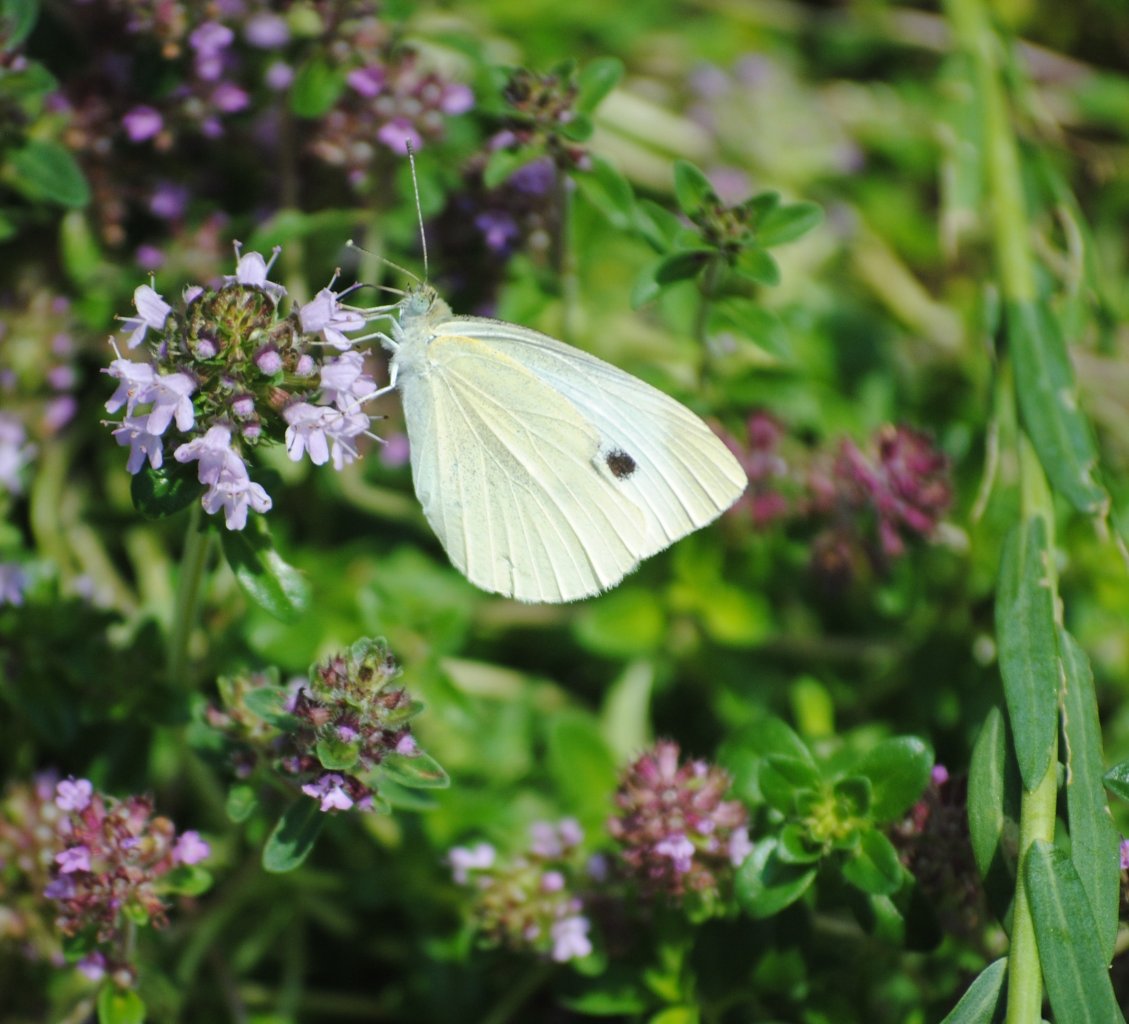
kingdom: Animalia
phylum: Arthropoda
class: Insecta
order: Lepidoptera
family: Pieridae
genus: Pieris
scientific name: Pieris rapae
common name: Cabbage White
